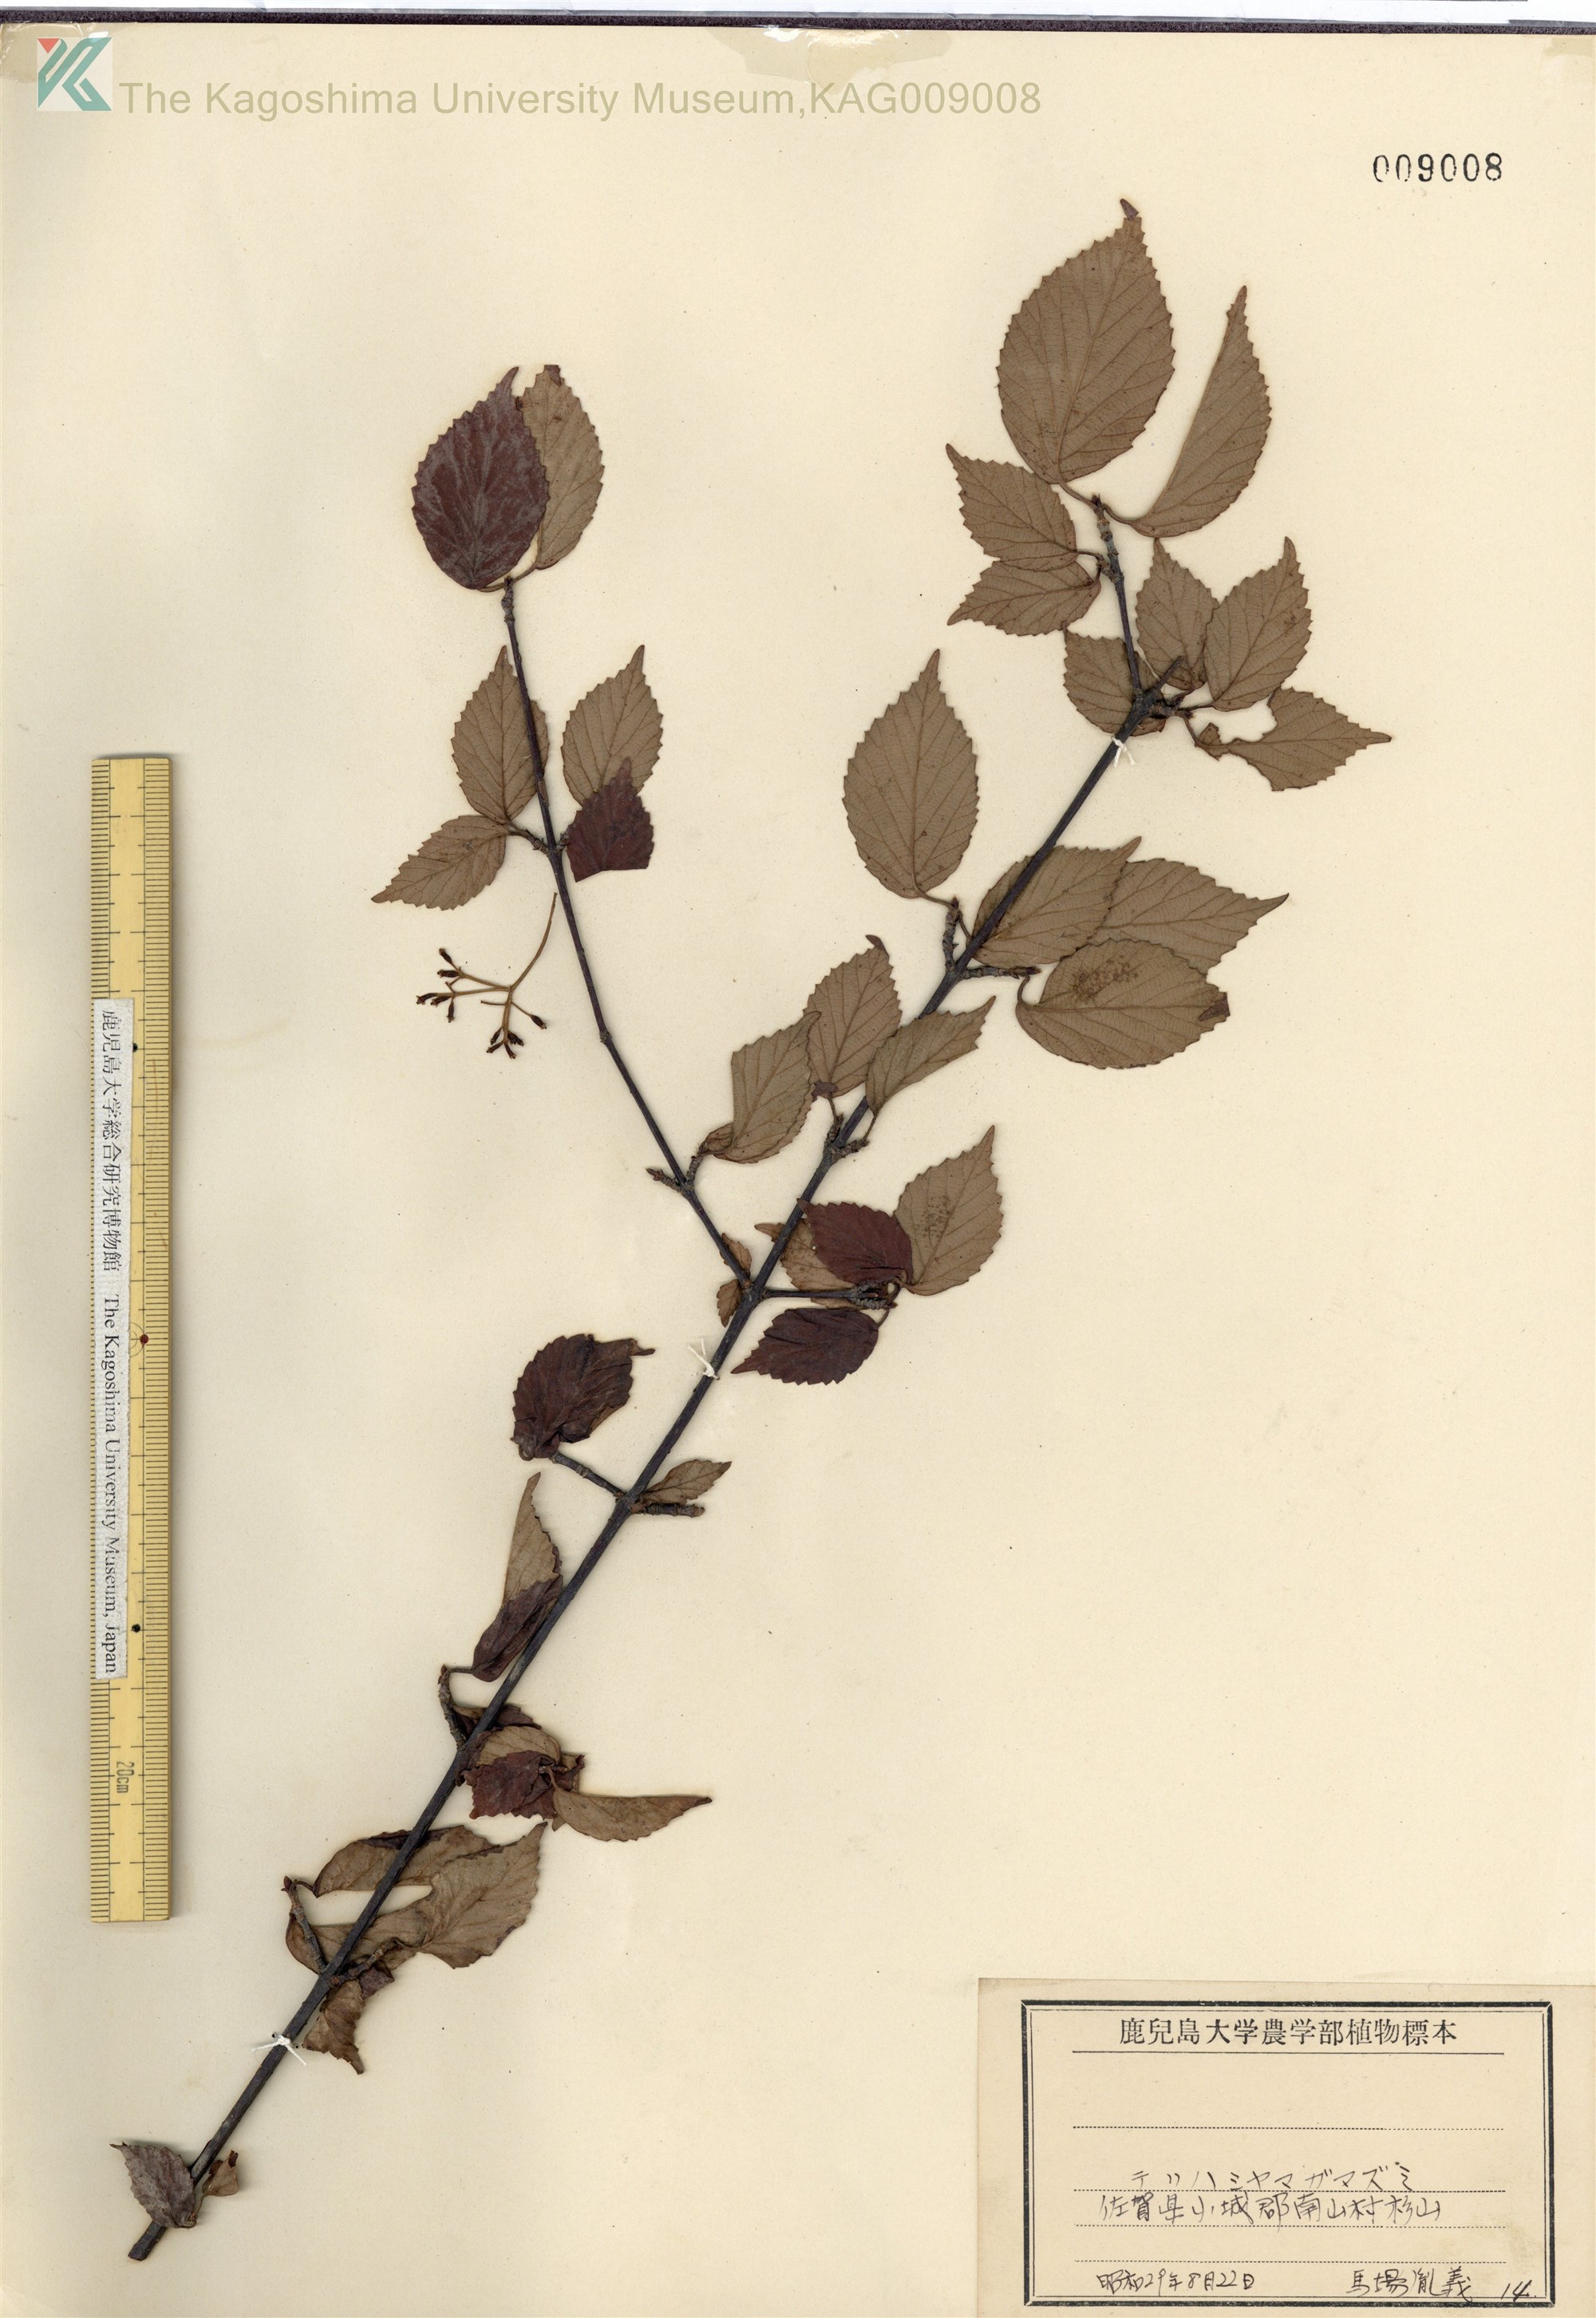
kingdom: Plantae
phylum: Tracheophyta
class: Magnoliopsida
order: Dipsacales
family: Viburnaceae
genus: Viburnum
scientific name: Viburnum wrightii
